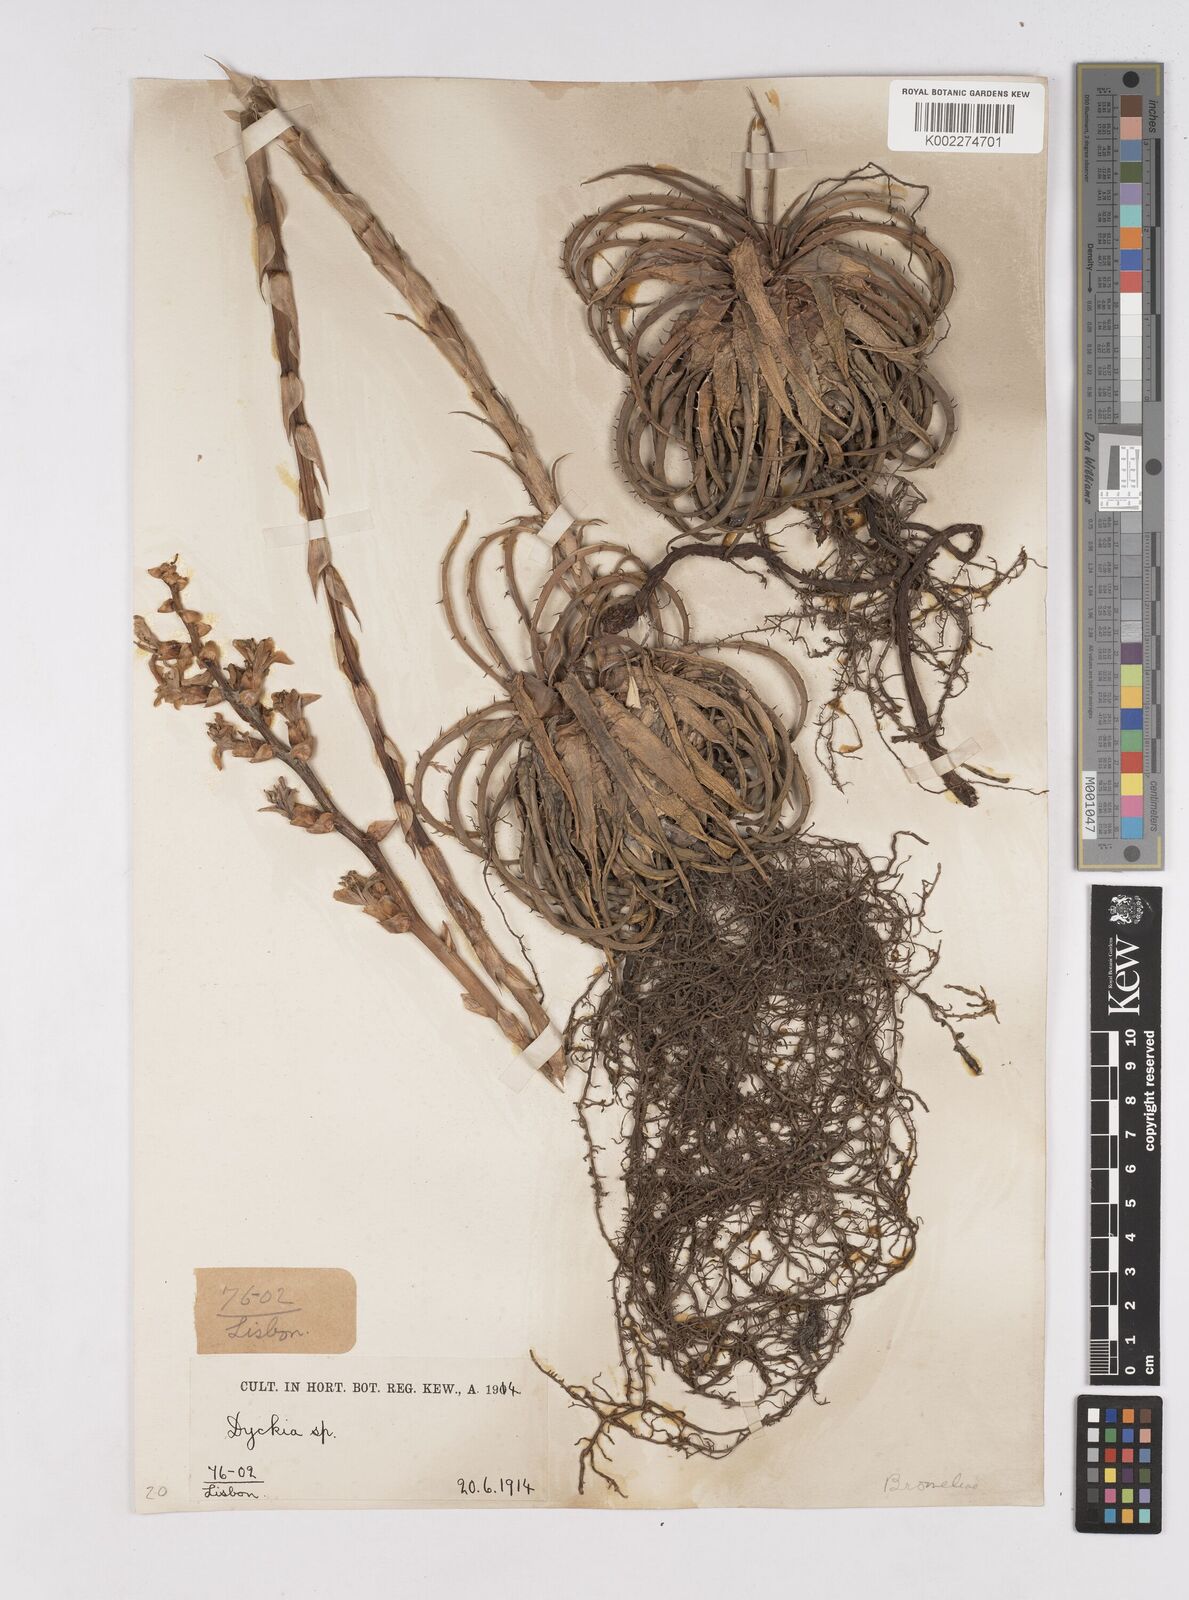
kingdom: Plantae
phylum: Tracheophyta
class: Liliopsida
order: Poales
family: Bromeliaceae
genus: Dyckia
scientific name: Dyckia
